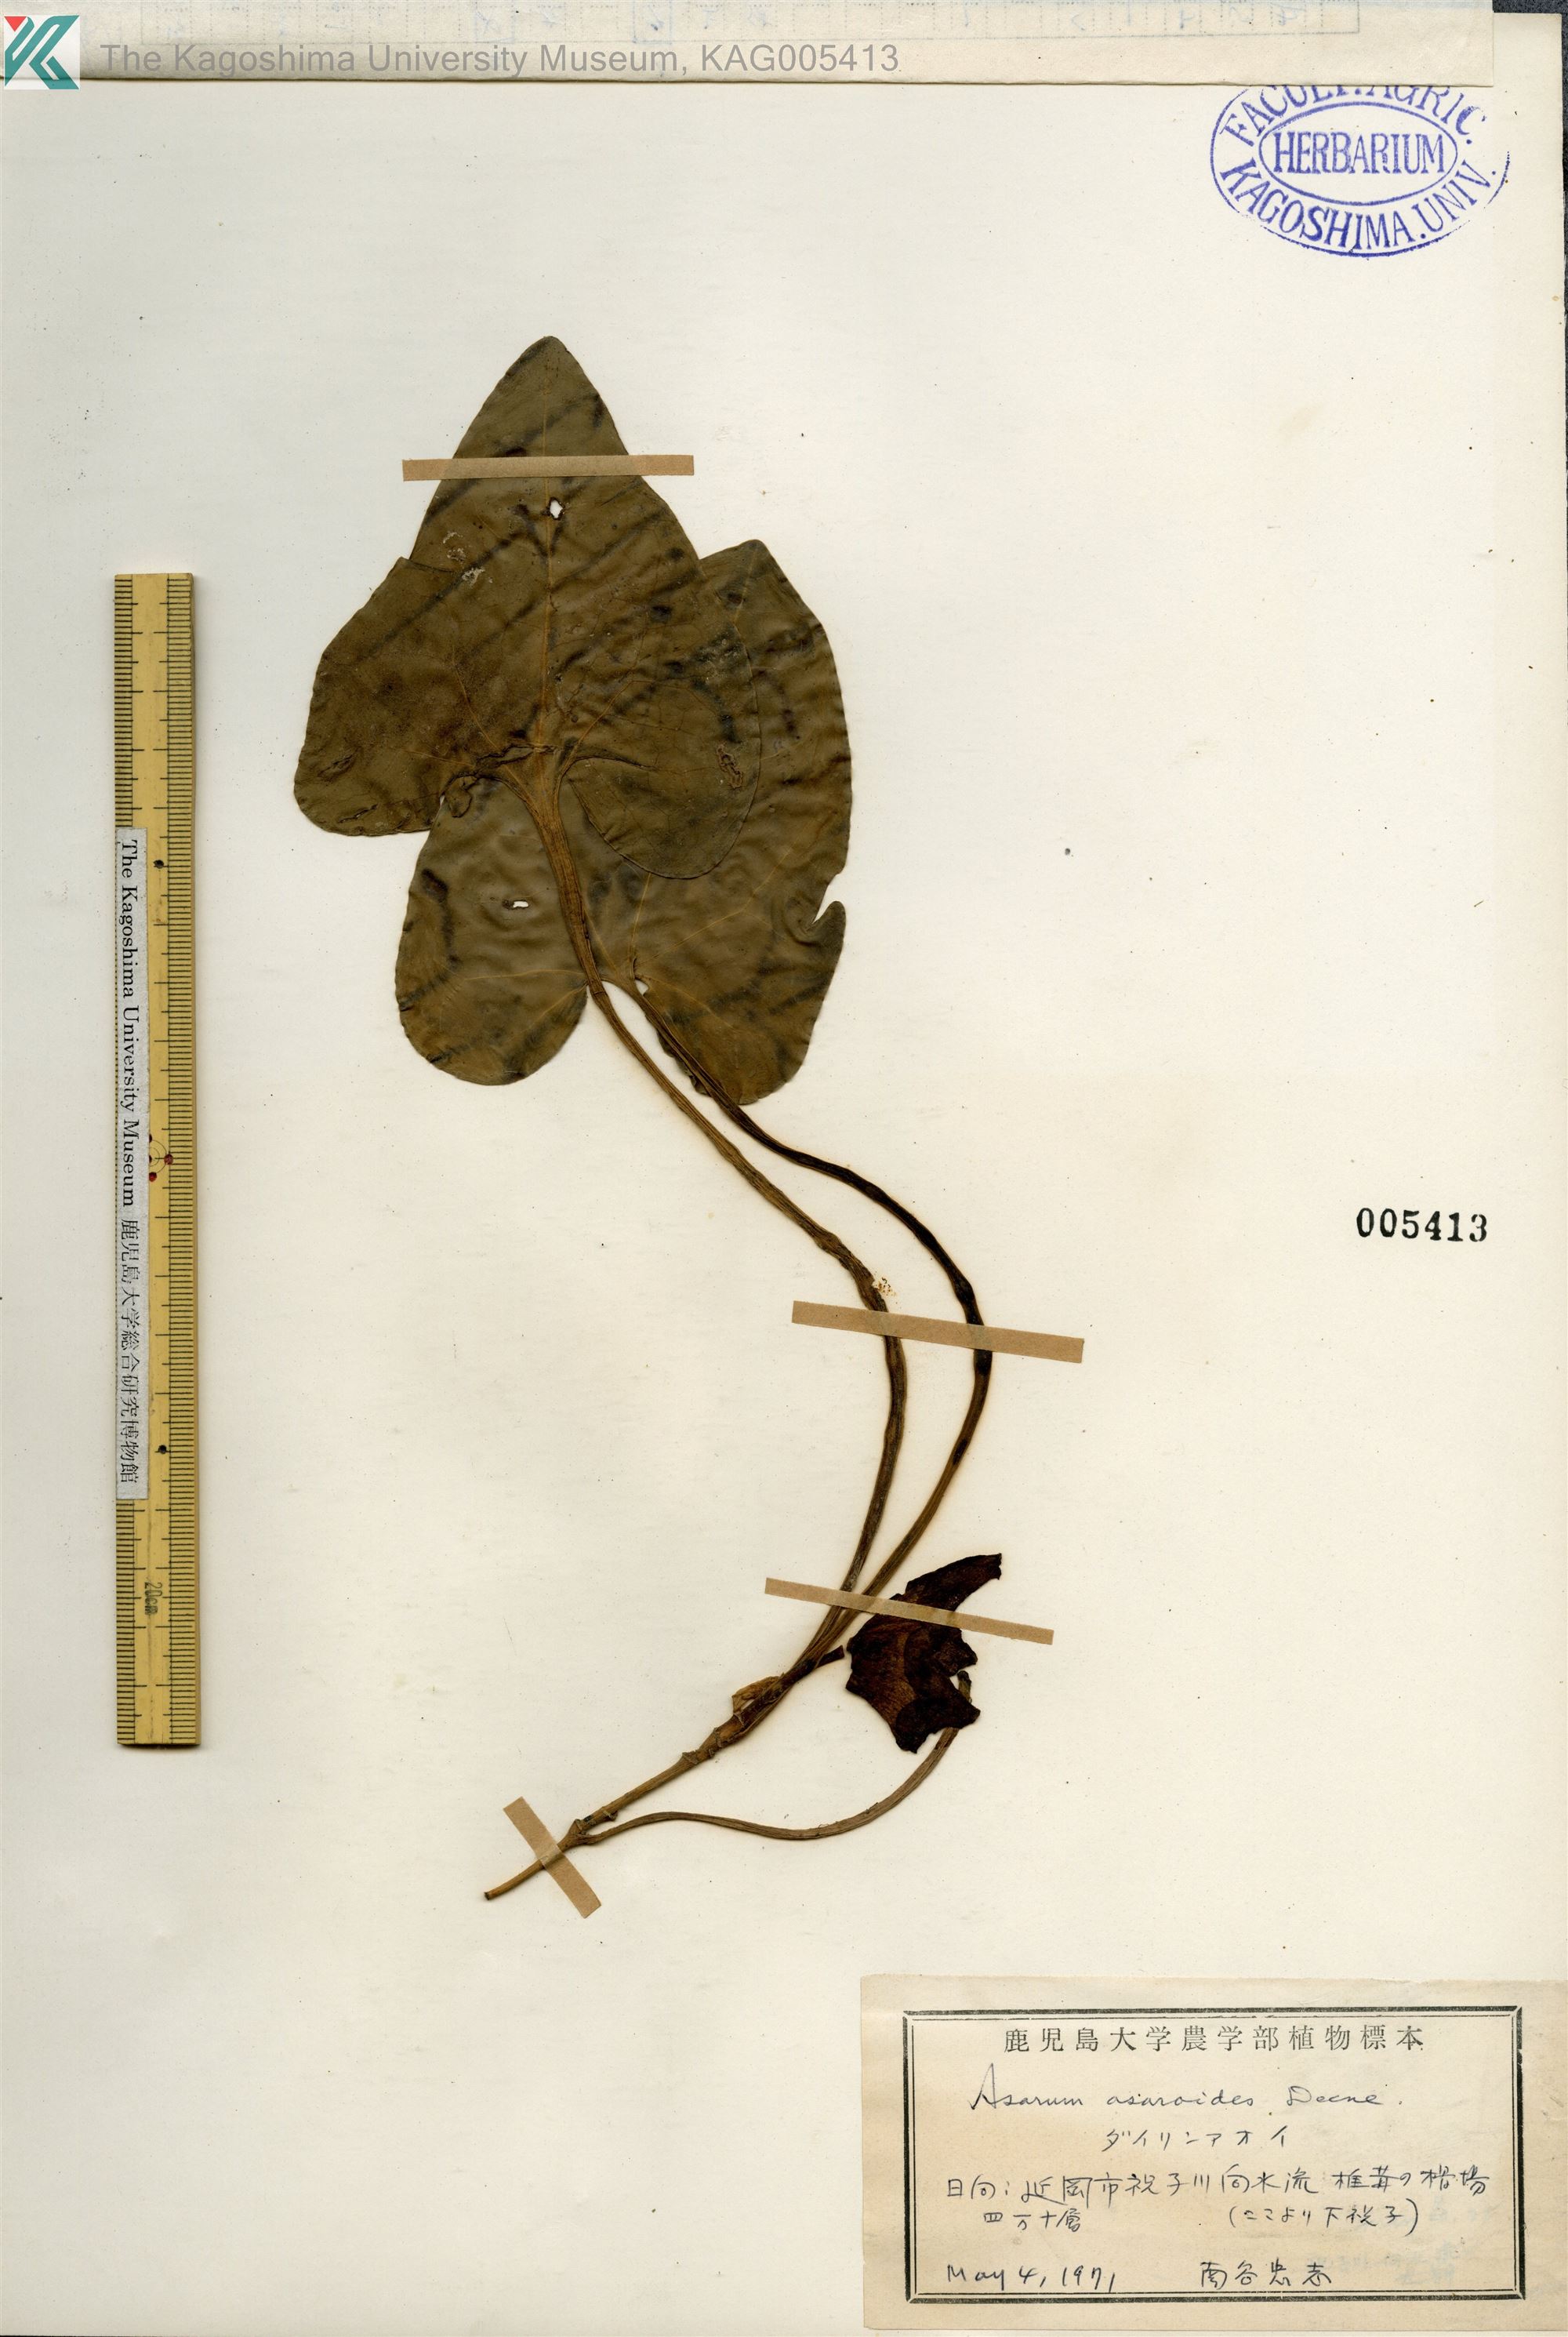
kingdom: Plantae
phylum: Tracheophyta
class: Magnoliopsida
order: Piperales
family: Aristolochiaceae
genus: Asarum
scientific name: Asarum asaroides
